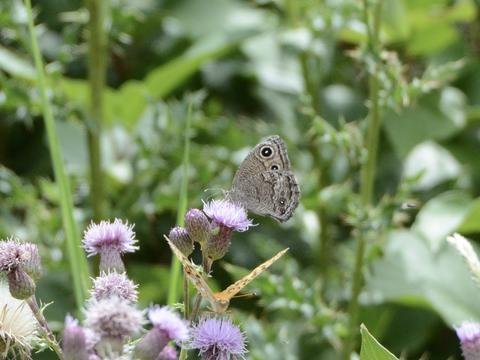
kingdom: Animalia
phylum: Arthropoda
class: Insecta
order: Lepidoptera
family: Nymphalidae
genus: Cercyonis
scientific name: Cercyonis sthenele
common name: Great Basin Wood-Nymph
